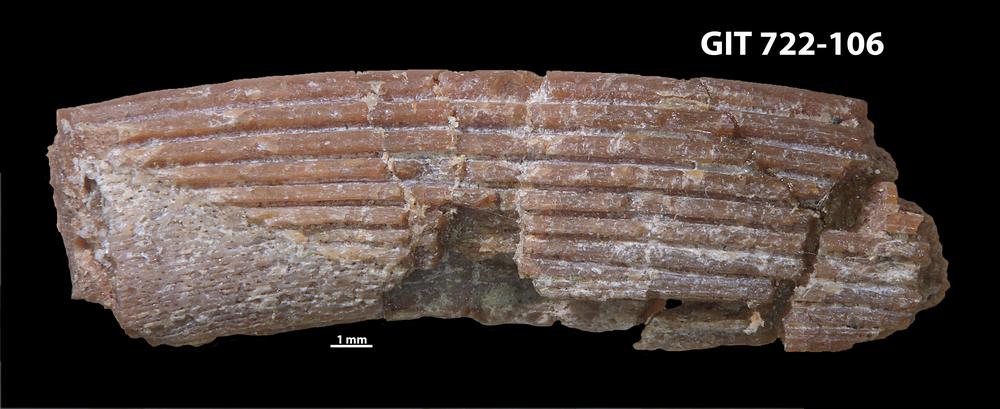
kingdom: Animalia
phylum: Chordata
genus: Devononchus
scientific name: Devononchus concinnus
